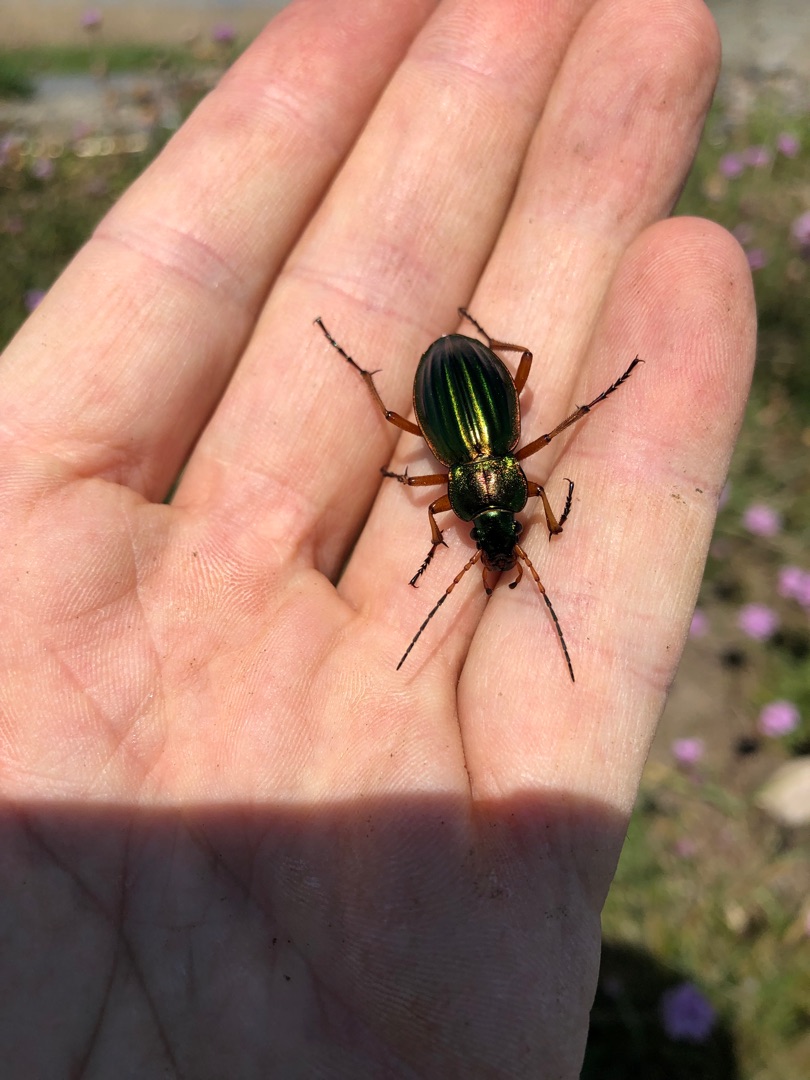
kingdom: Animalia
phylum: Arthropoda
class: Insecta
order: Coleoptera
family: Carabidae
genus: Carabus
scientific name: Carabus auratus
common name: Stor guldløber
